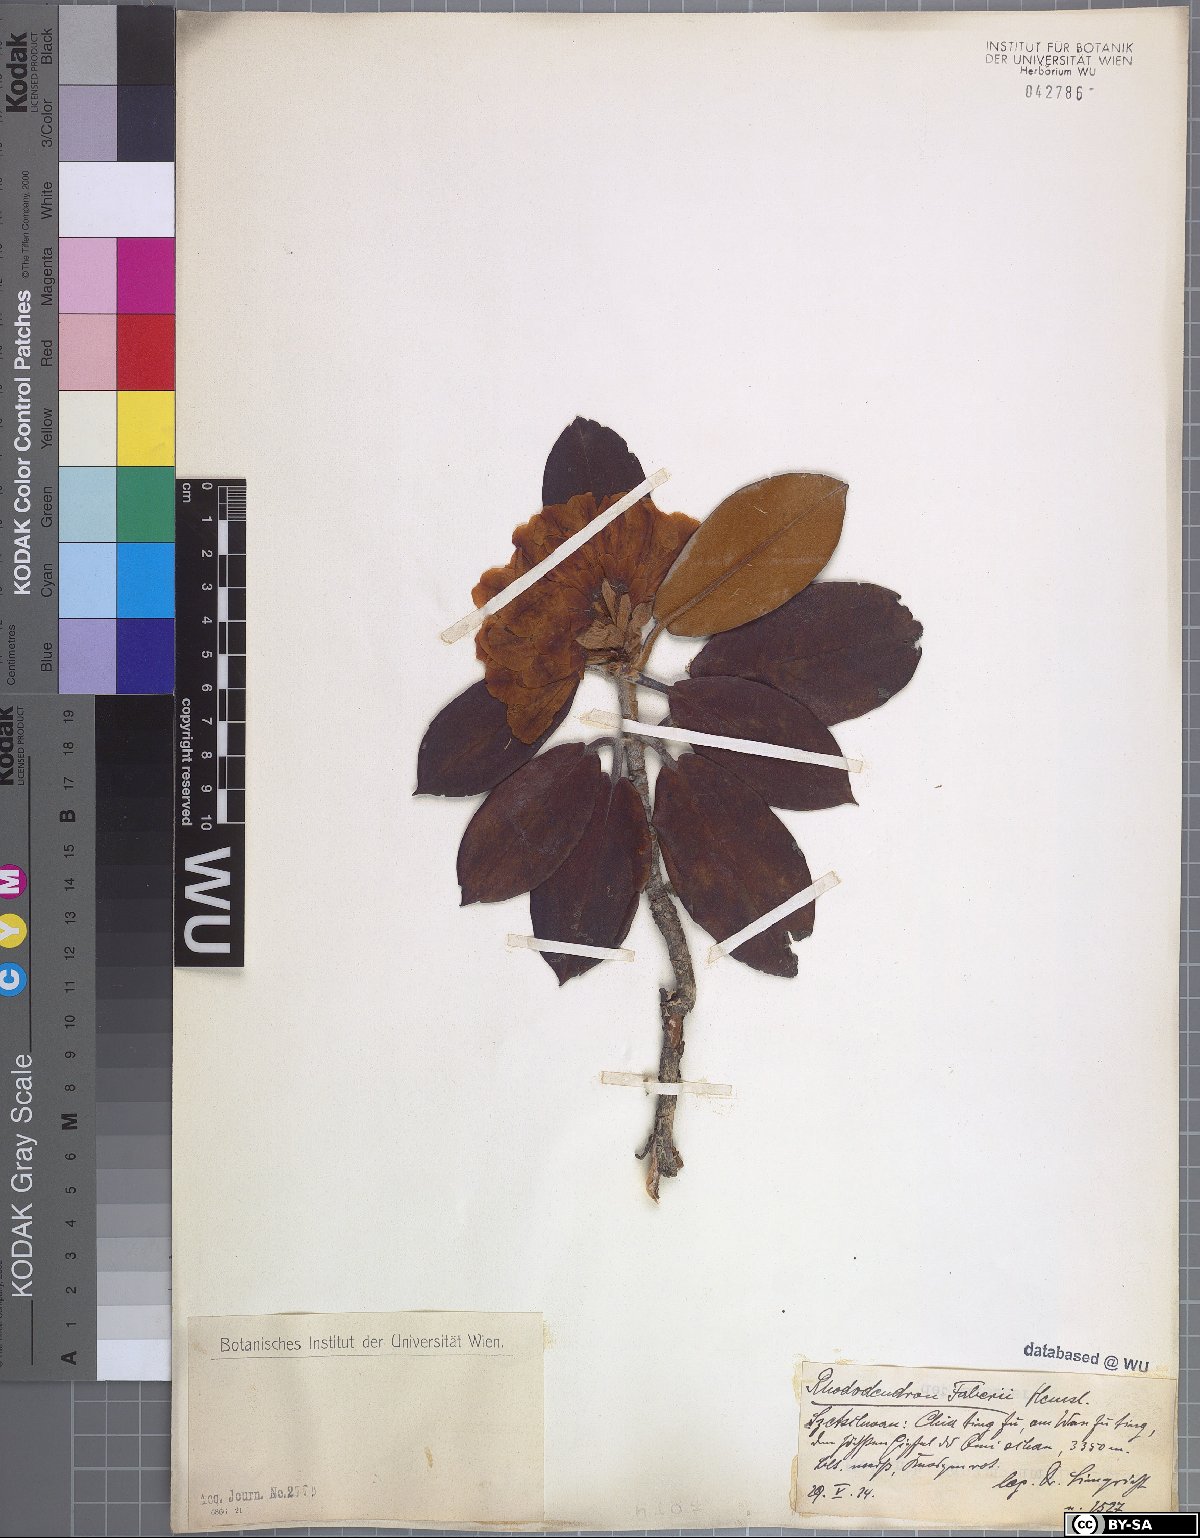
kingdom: Plantae
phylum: Tracheophyta
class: Magnoliopsida
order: Ericales
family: Ericaceae
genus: Rhododendron
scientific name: Rhododendron faberi
